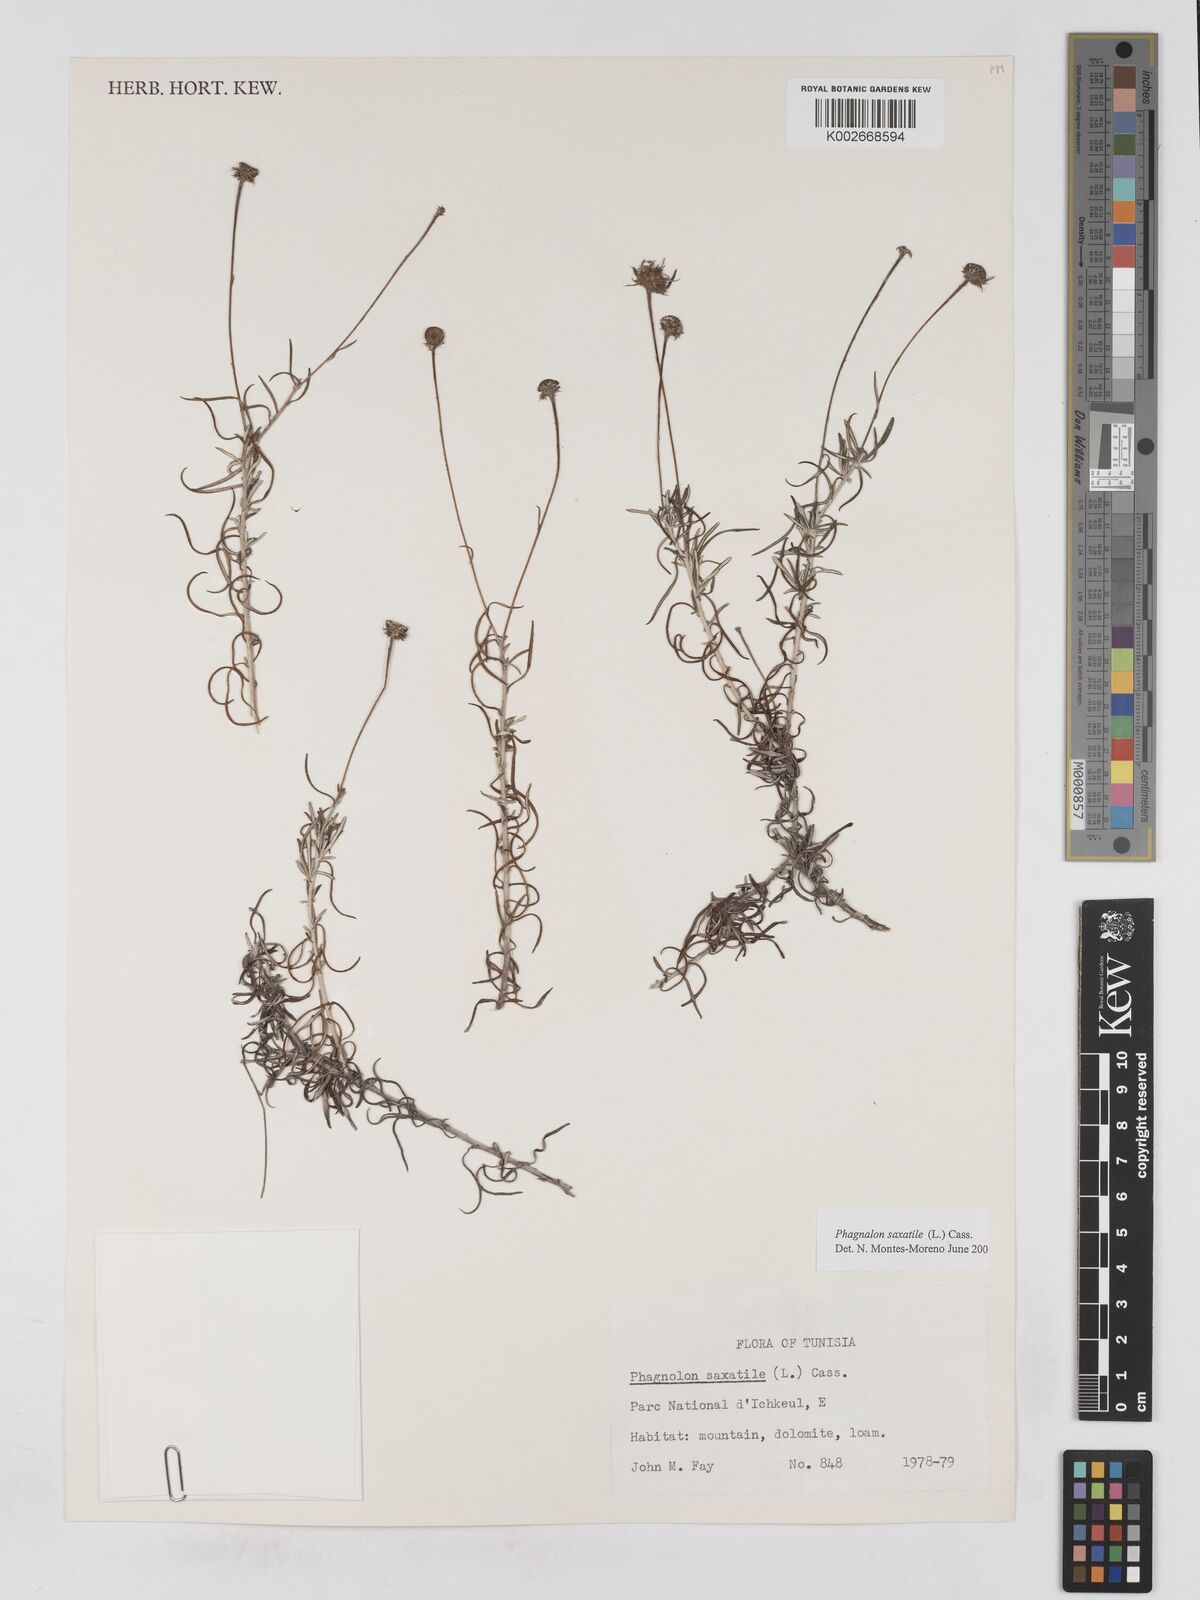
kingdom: Plantae
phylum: Tracheophyta
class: Magnoliopsida
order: Asterales
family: Asteraceae
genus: Phagnalon
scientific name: Phagnalon saxatile
